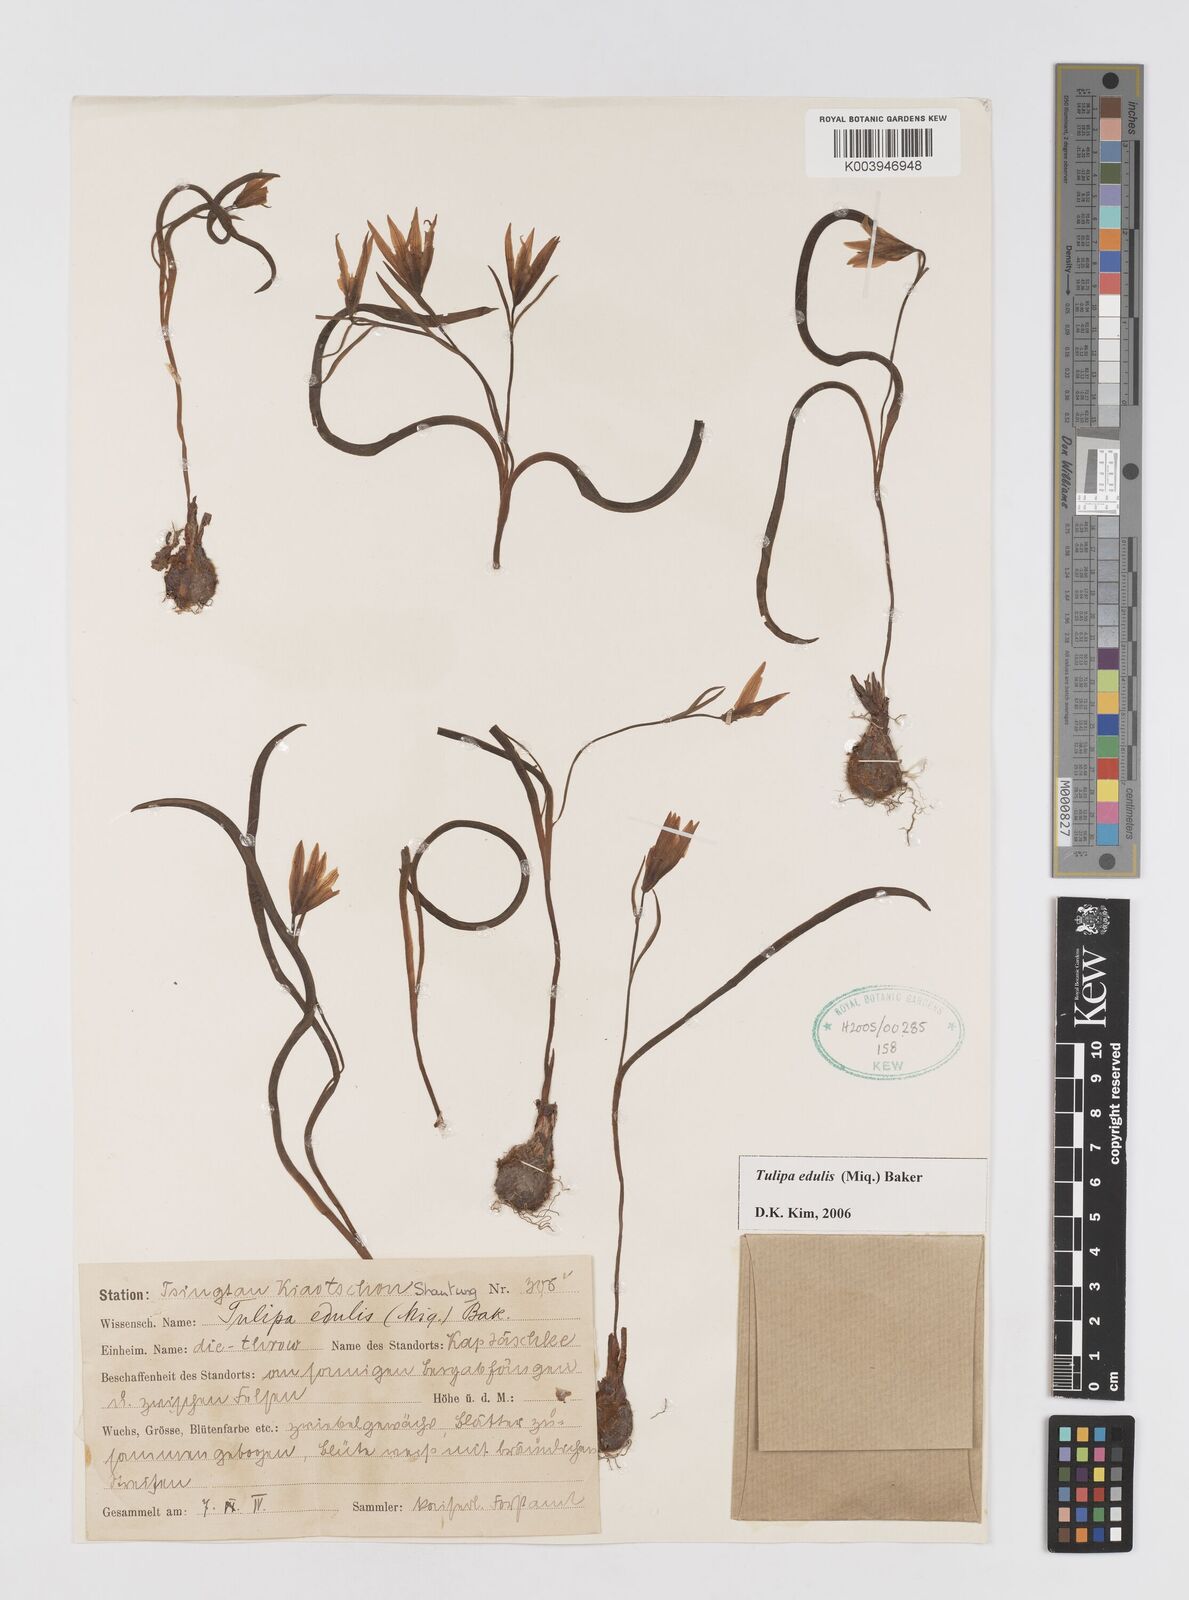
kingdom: Plantae
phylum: Tracheophyta
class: Liliopsida
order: Liliales
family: Liliaceae
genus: Amana
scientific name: Amana edulis
